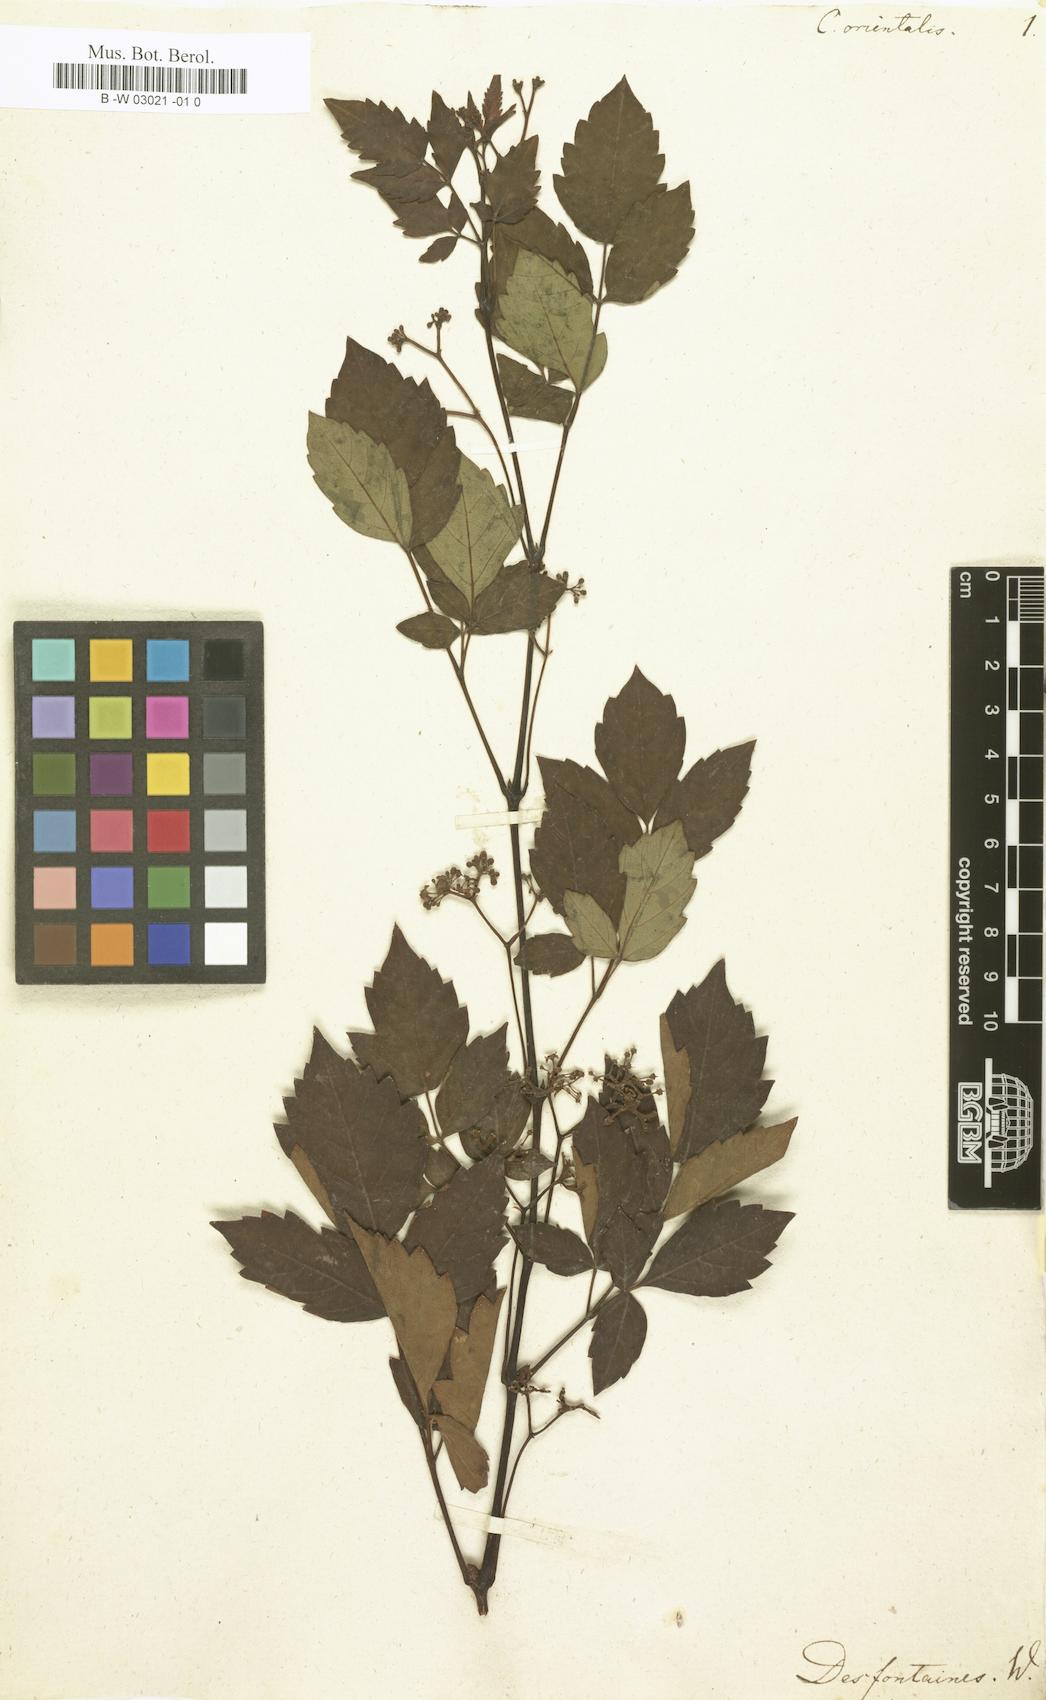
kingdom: Plantae
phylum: Tracheophyta
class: Magnoliopsida
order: Vitales
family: Vitaceae
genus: Ampelopsis
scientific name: Ampelopsis orientalis
